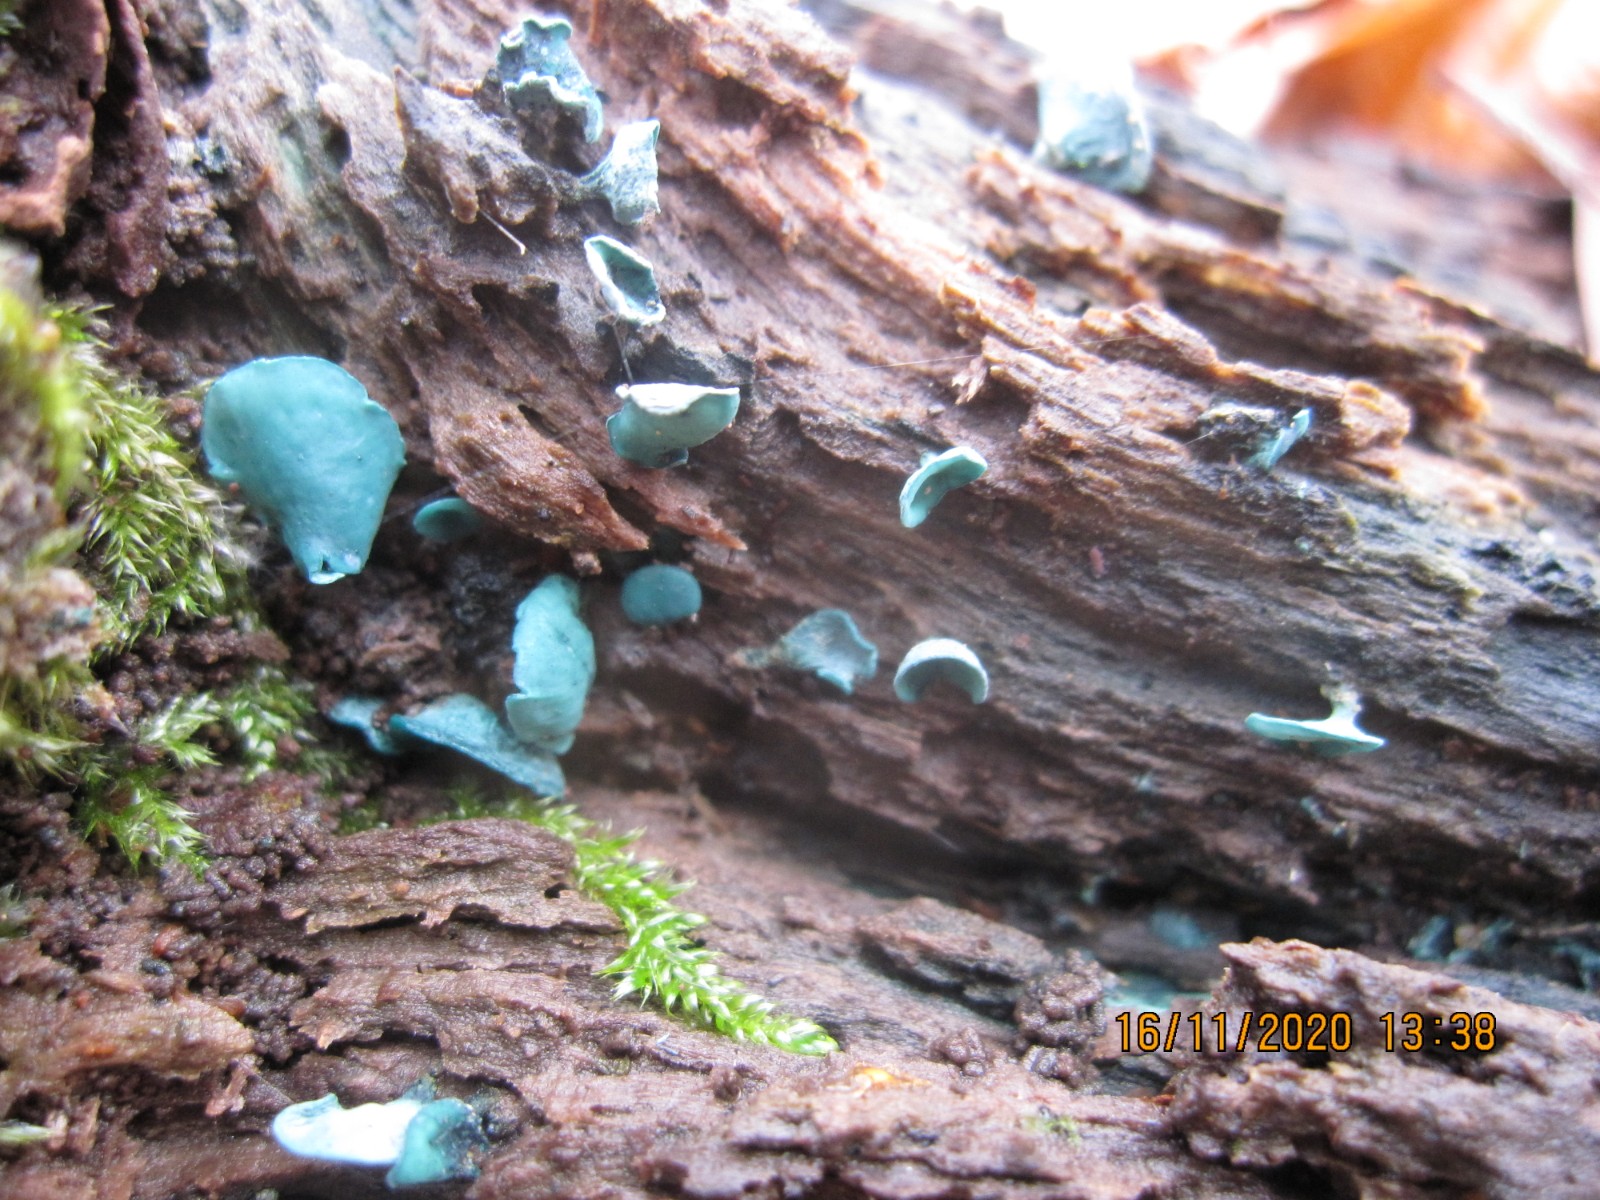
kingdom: Fungi
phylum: Ascomycota
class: Leotiomycetes
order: Helotiales
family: Chlorociboriaceae
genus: Chlorociboria
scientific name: Chlorociboria aeruginascens
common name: almindelig grønskive
